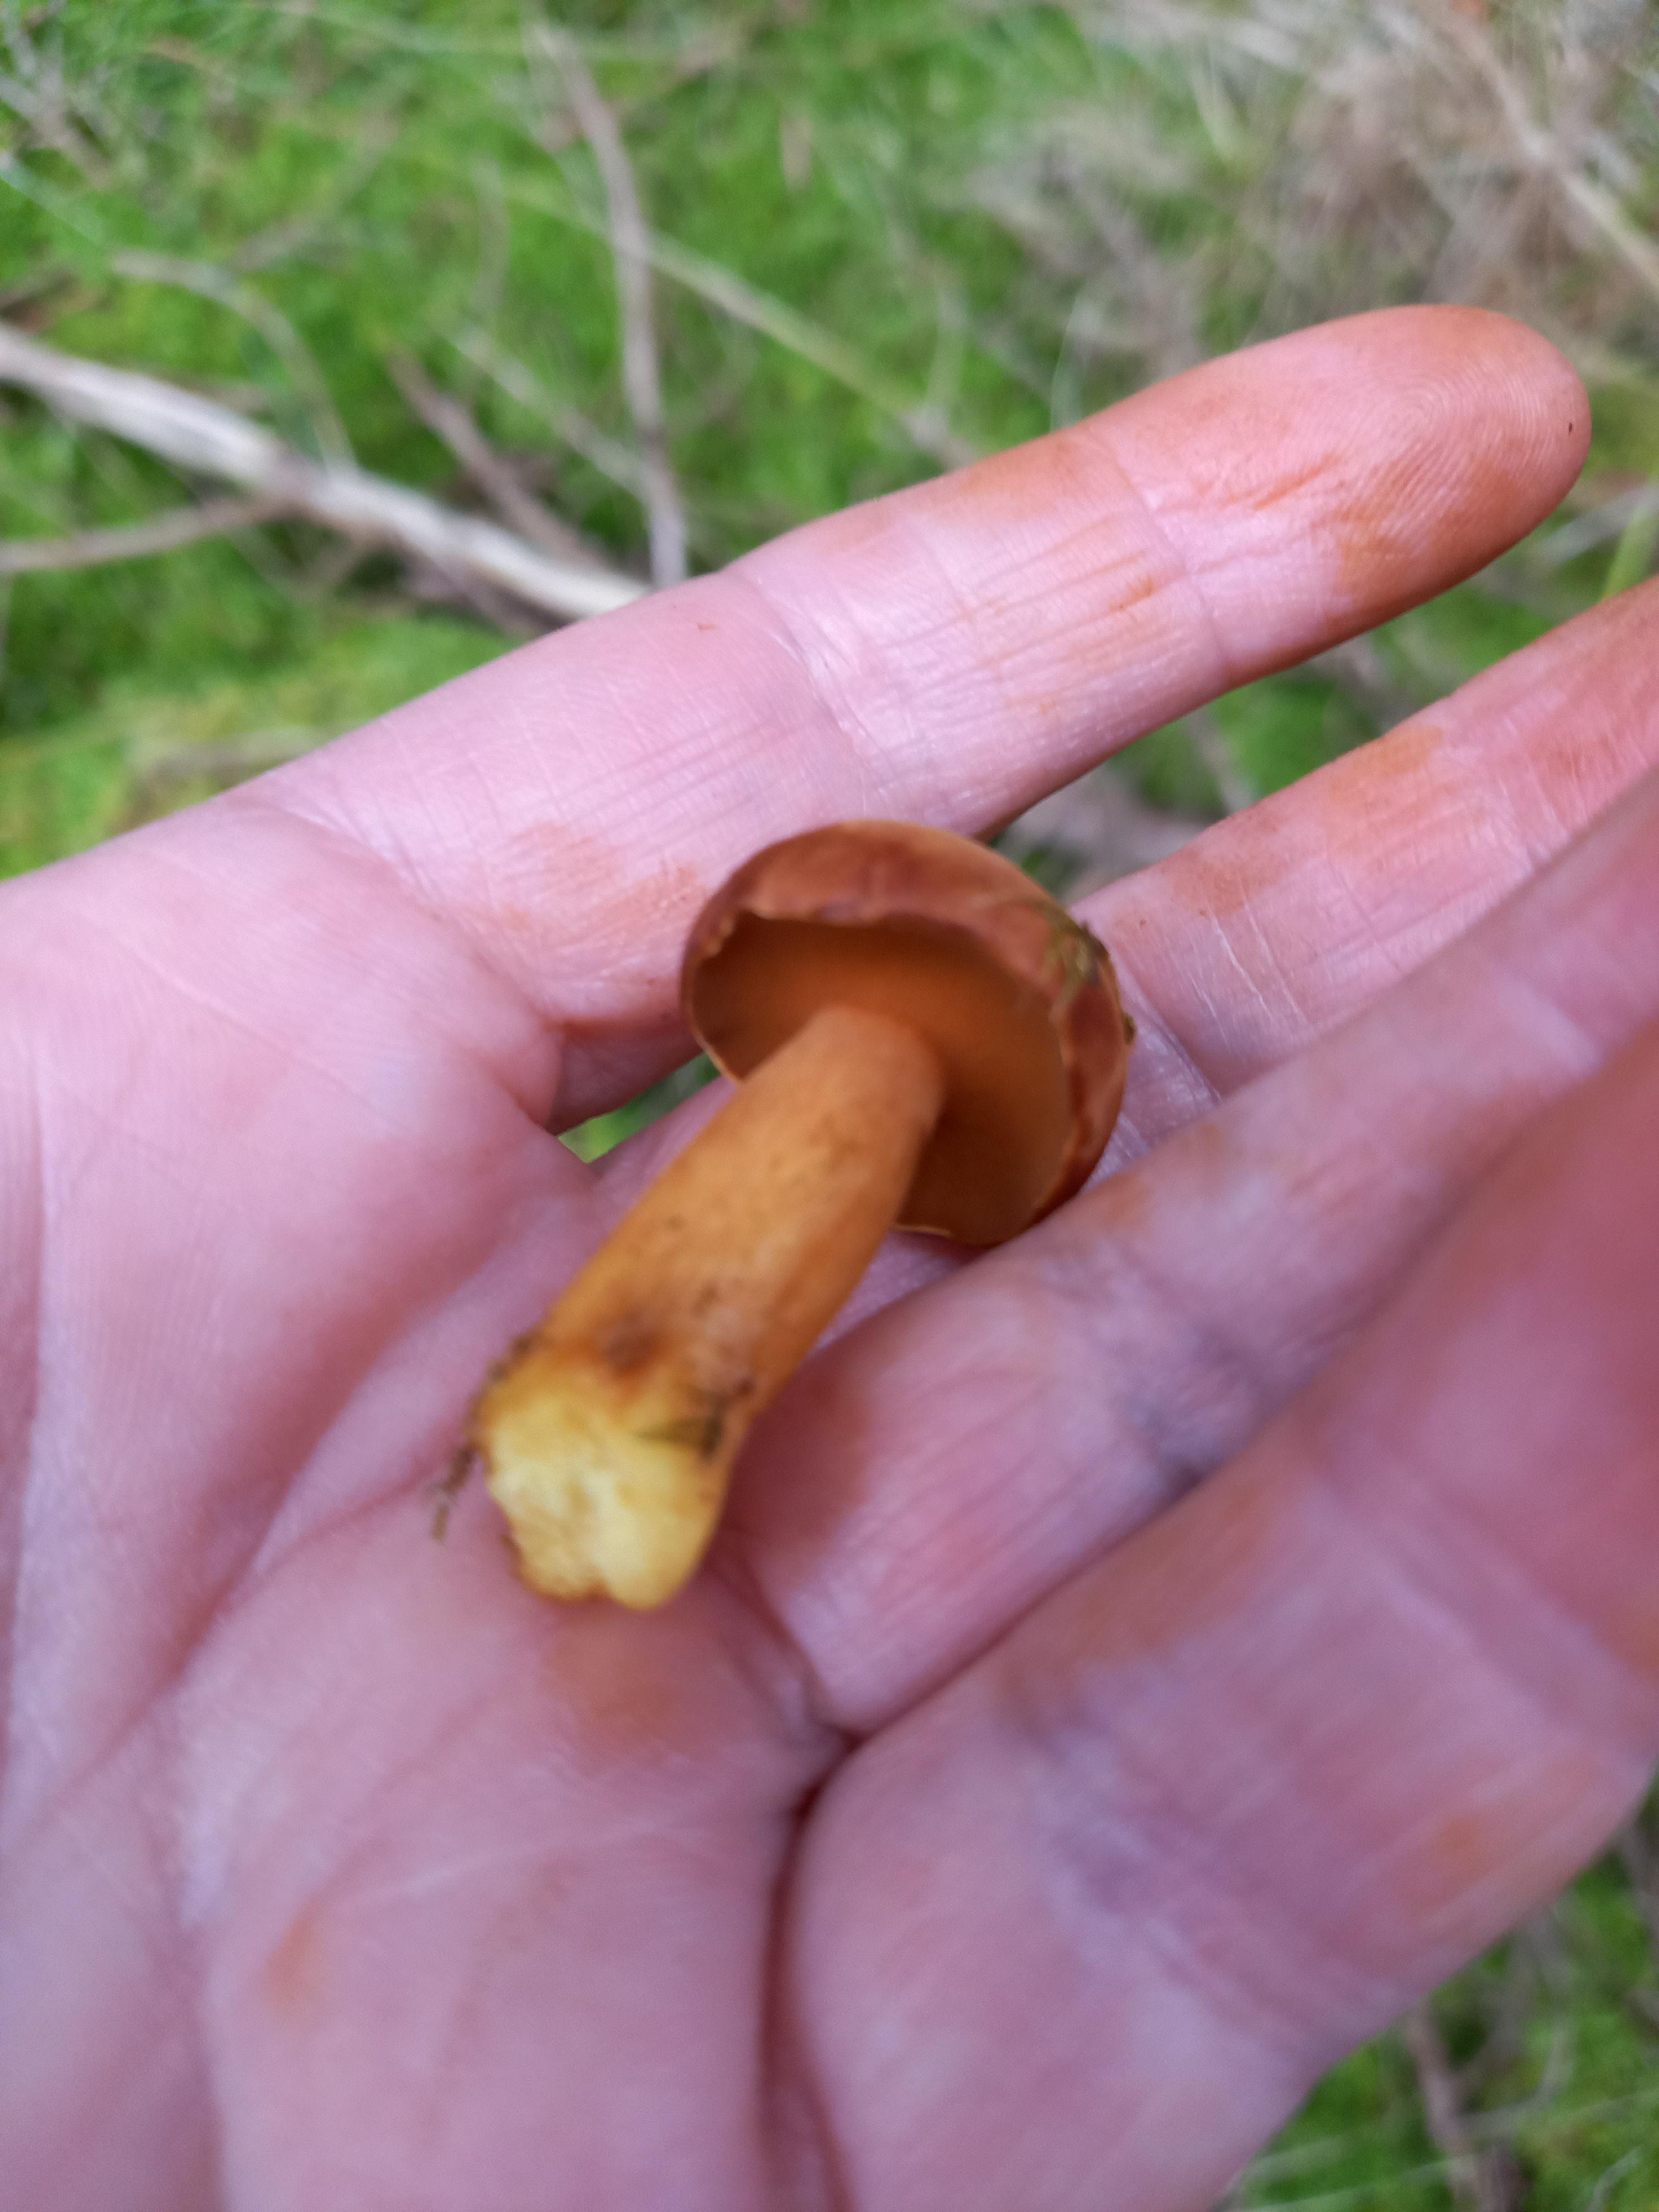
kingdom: Fungi
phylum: Basidiomycota
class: Agaricomycetes
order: Boletales
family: Boletaceae
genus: Chalciporus
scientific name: Chalciporus piperatus
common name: peberrørhat
